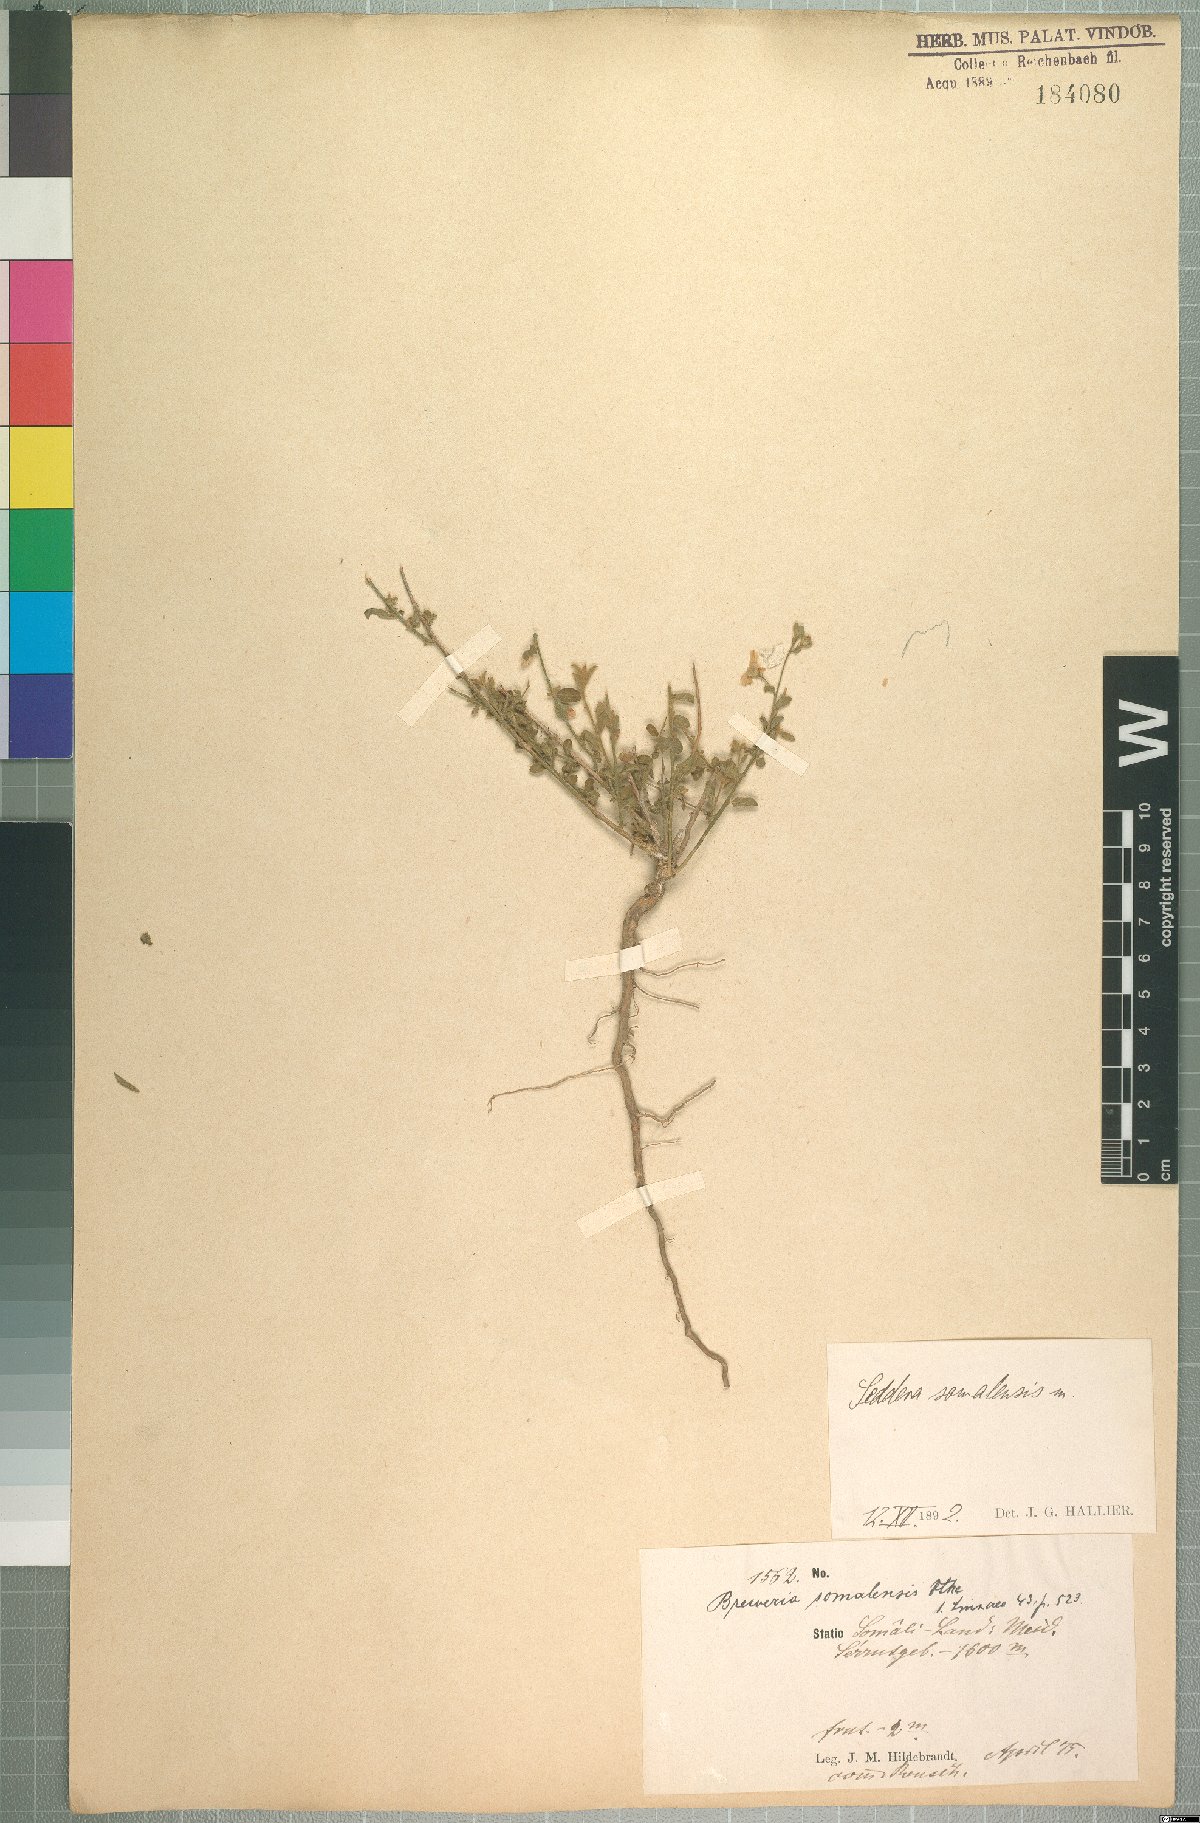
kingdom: Plantae
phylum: Tracheophyta
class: Magnoliopsida
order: Solanales
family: Convolvulaceae
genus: Seddera
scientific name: Seddera arabica
